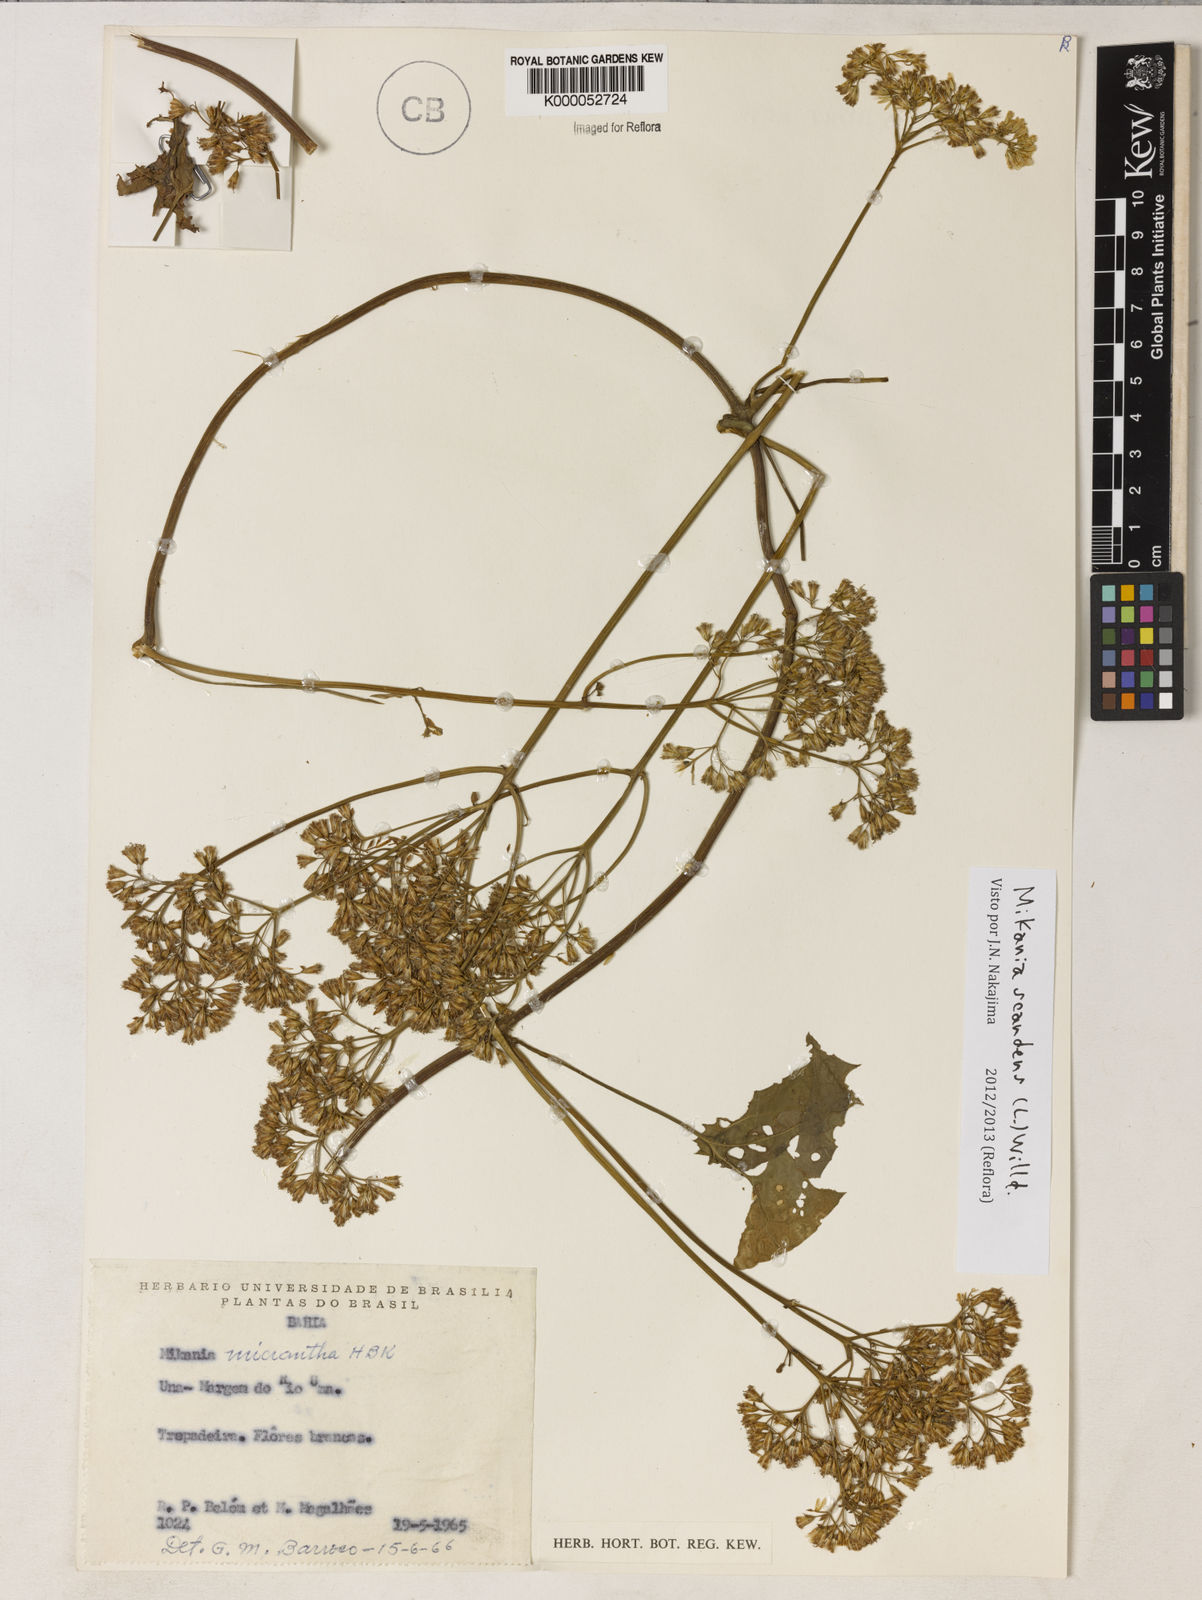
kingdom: Plantae
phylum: Tracheophyta
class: Magnoliopsida
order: Asterales
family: Asteraceae
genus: Mikania
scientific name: Mikania scandens
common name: Climbing hempvine
